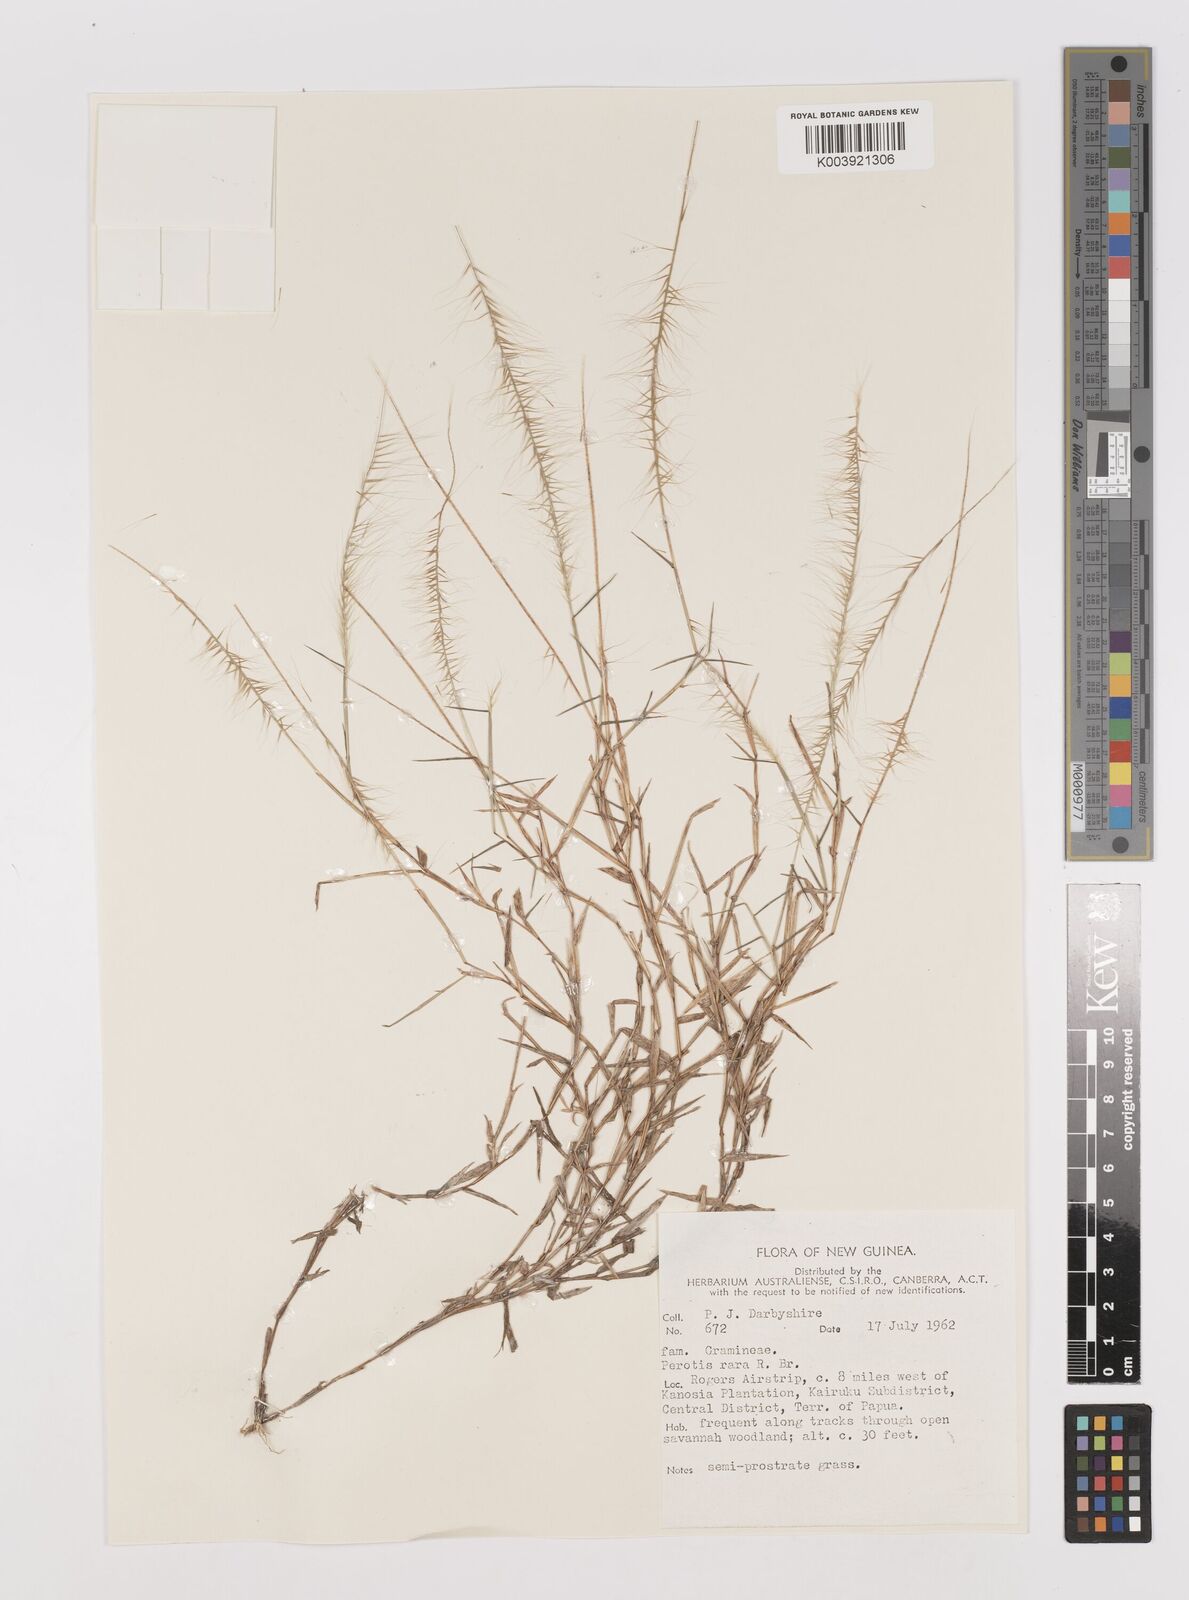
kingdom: Plantae
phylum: Tracheophyta
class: Liliopsida
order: Poales
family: Poaceae
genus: Perotis
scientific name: Perotis rara
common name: Comet grass
